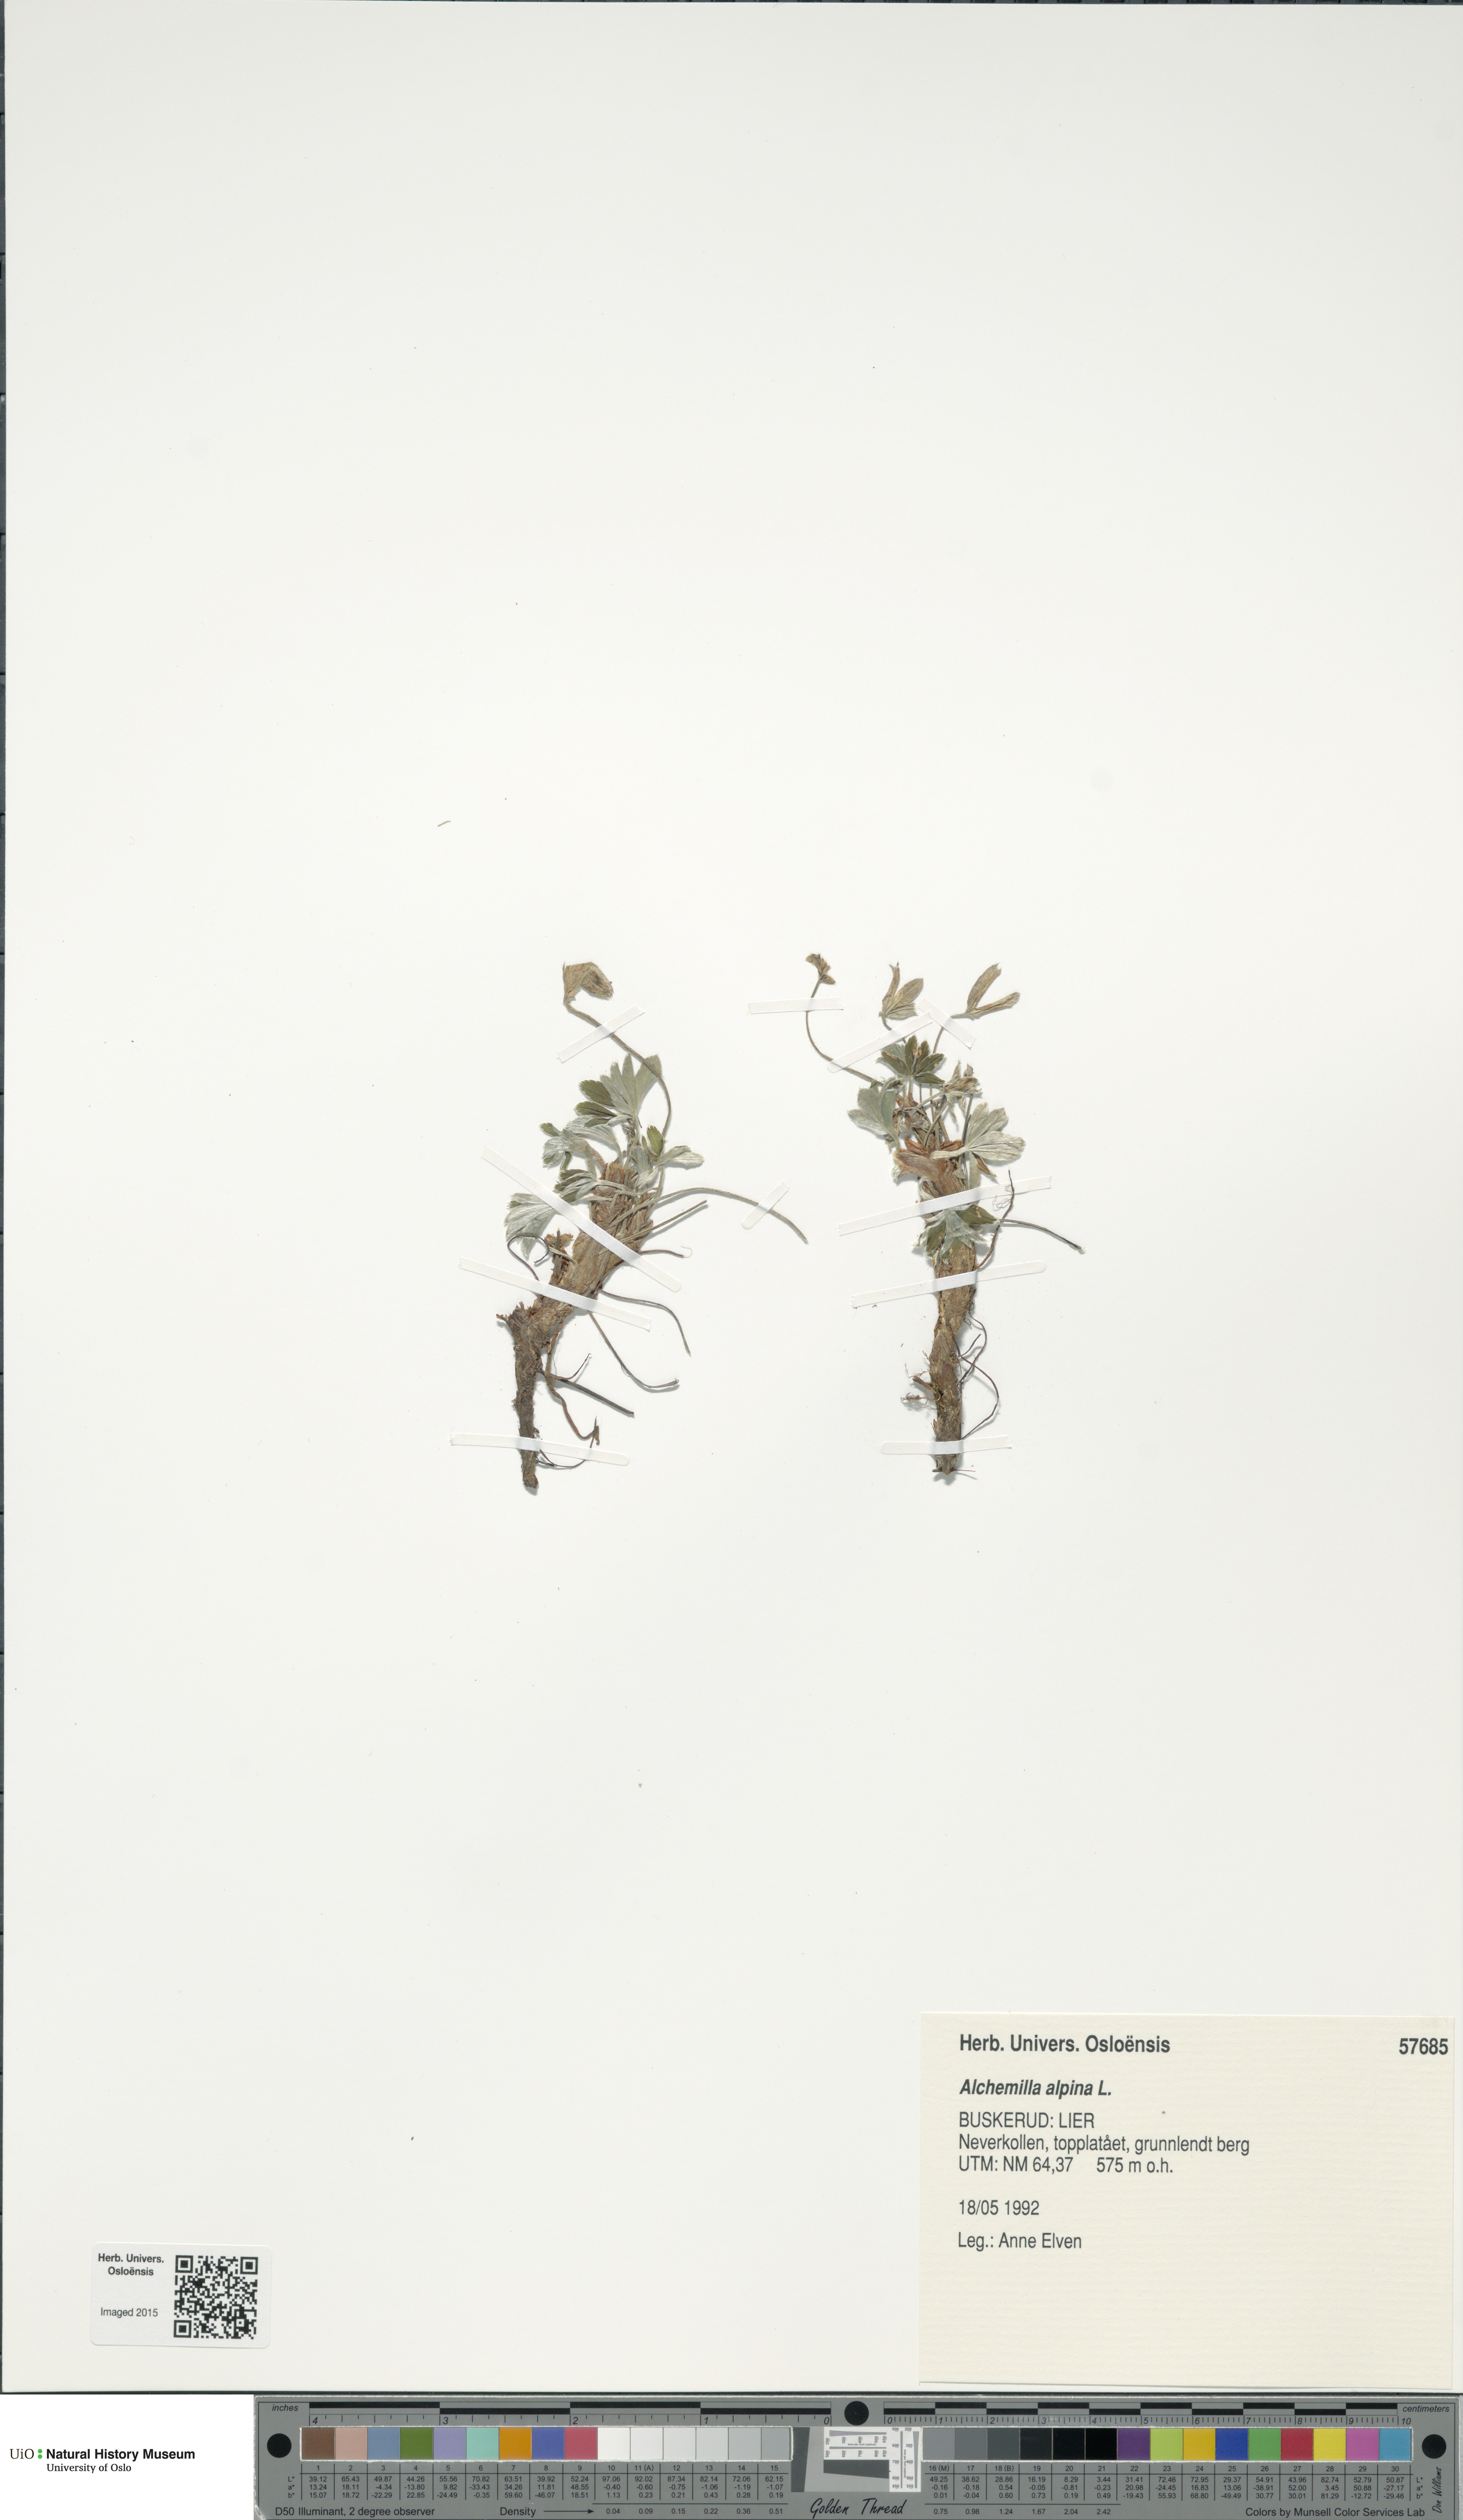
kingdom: Plantae
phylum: Tracheophyta
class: Magnoliopsida
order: Rosales
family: Rosaceae
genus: Alchemilla
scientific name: Alchemilla alpina
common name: Alpine lady's-mantle
